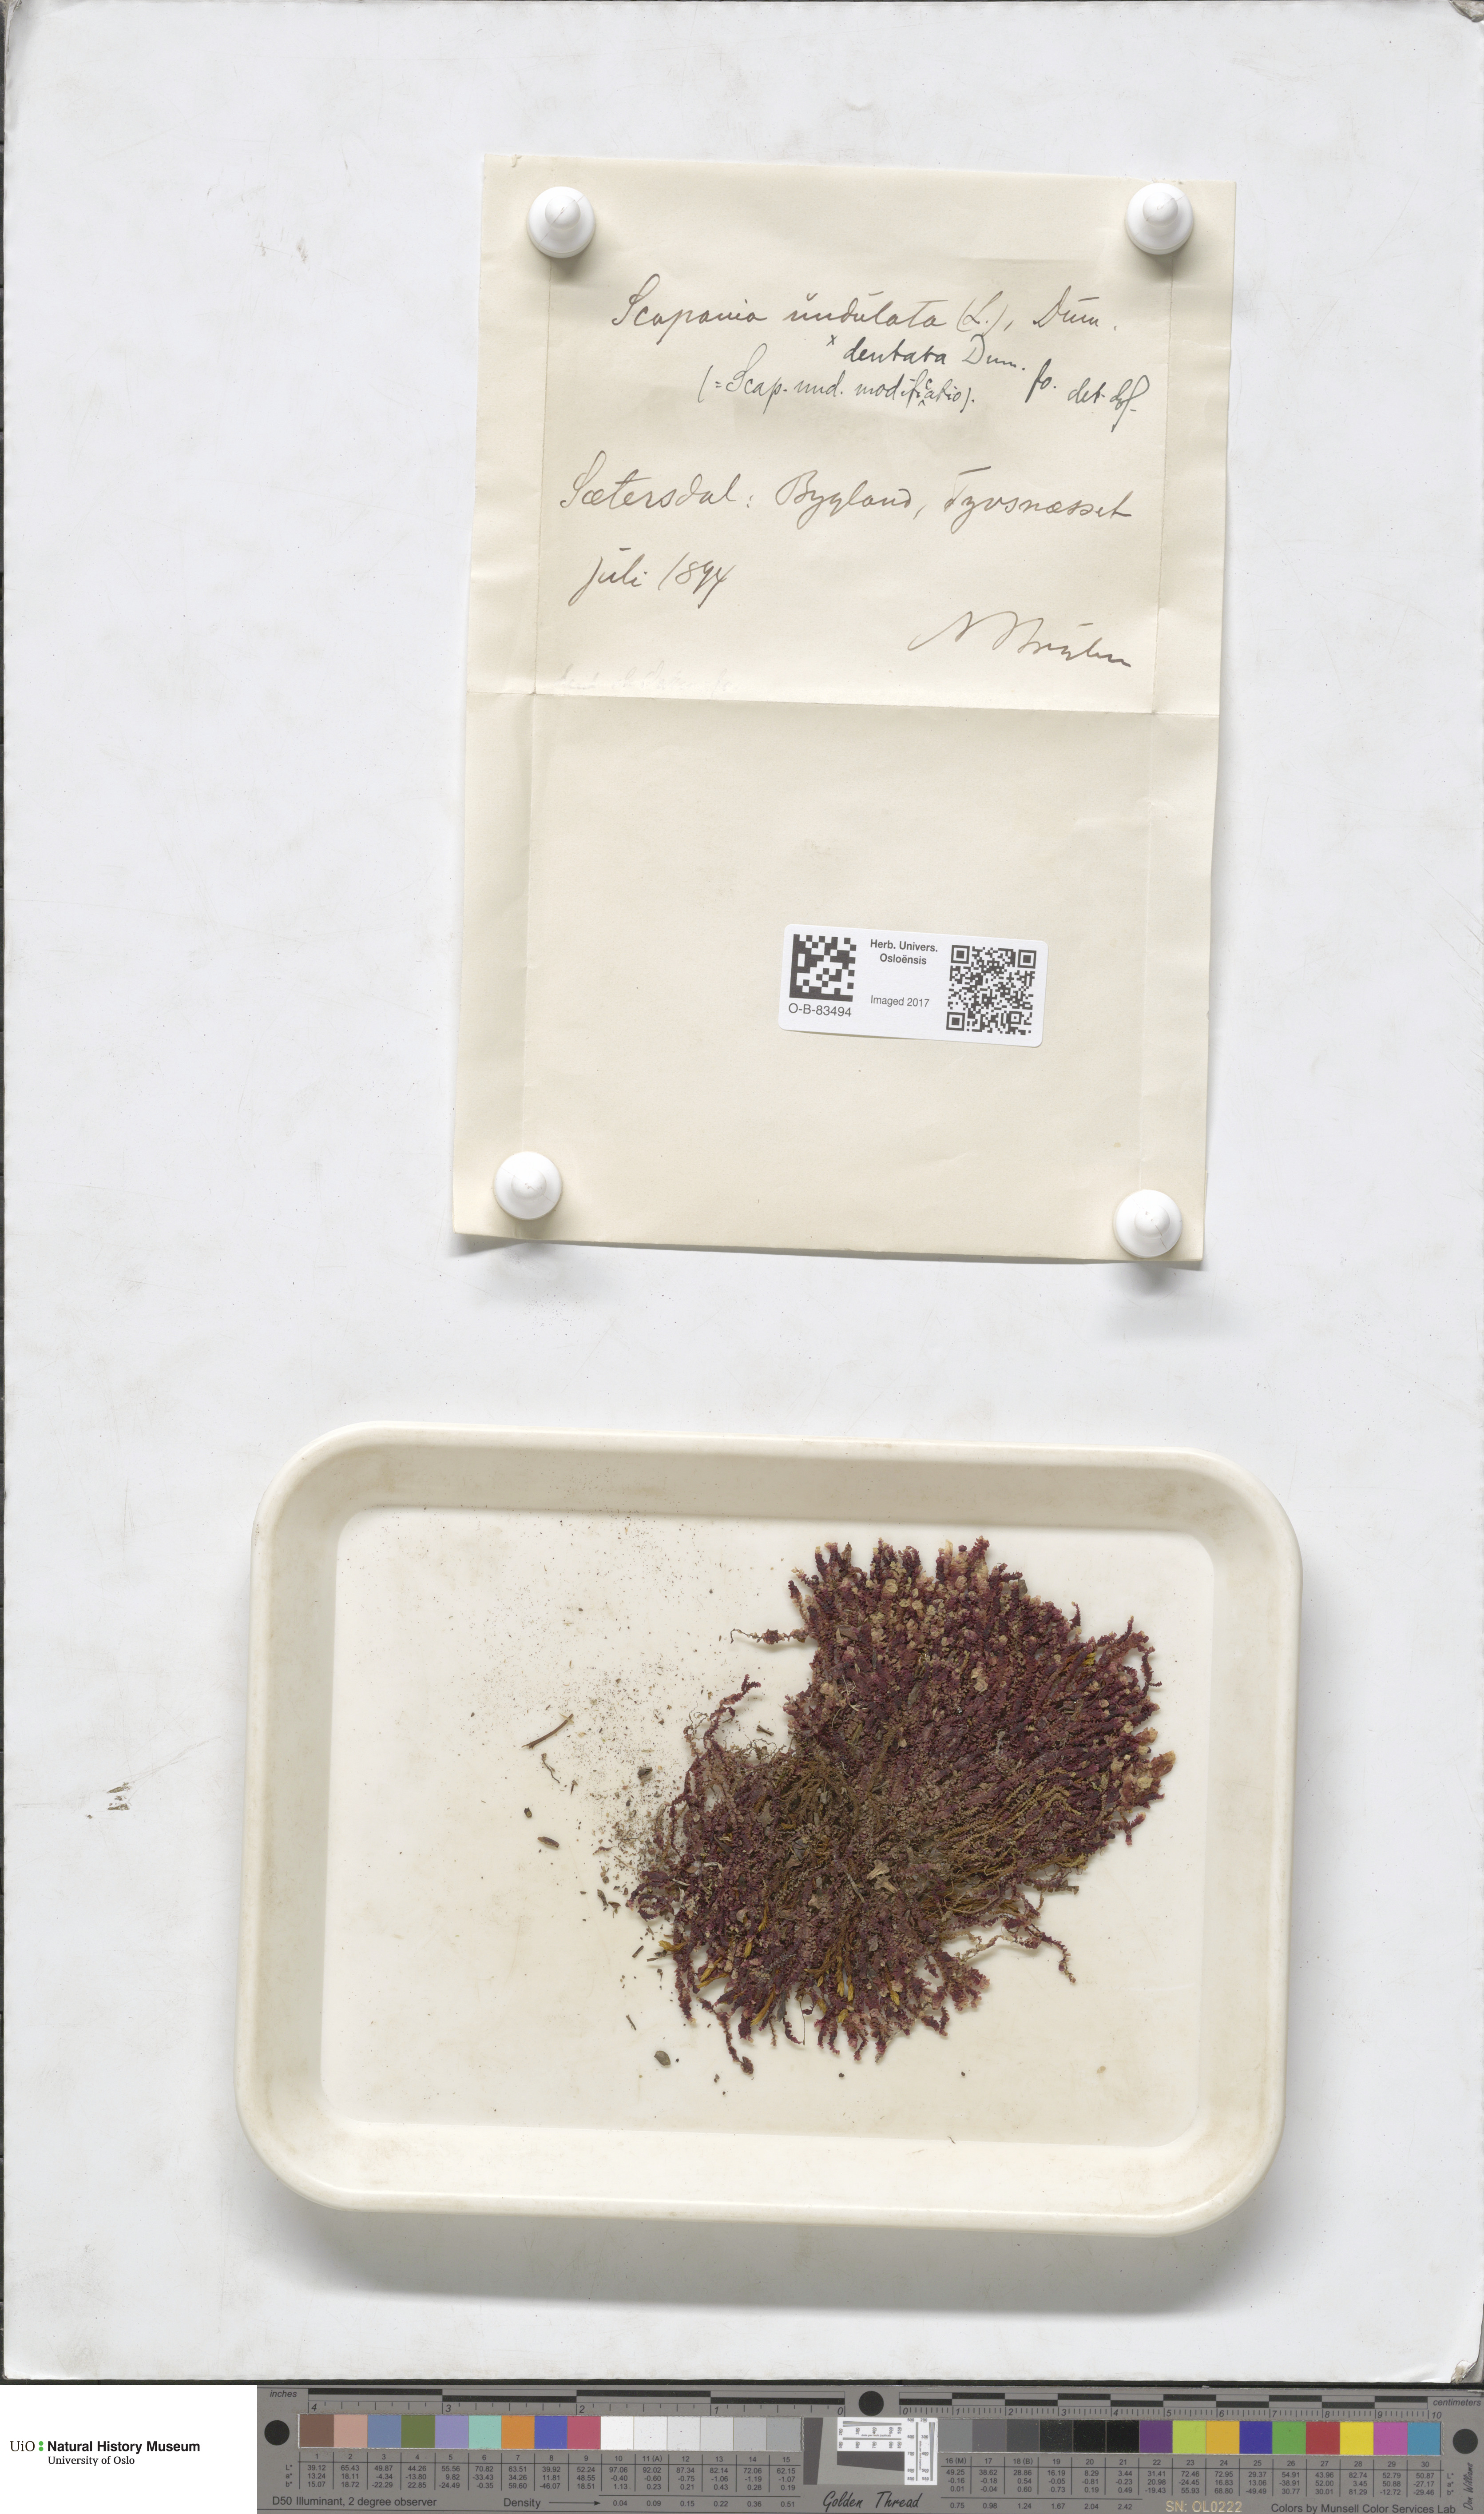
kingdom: Plantae
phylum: Marchantiophyta
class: Jungermanniopsida
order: Jungermanniales
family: Scapaniaceae
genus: Scapania
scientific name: Scapania undulata
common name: Water earwort
